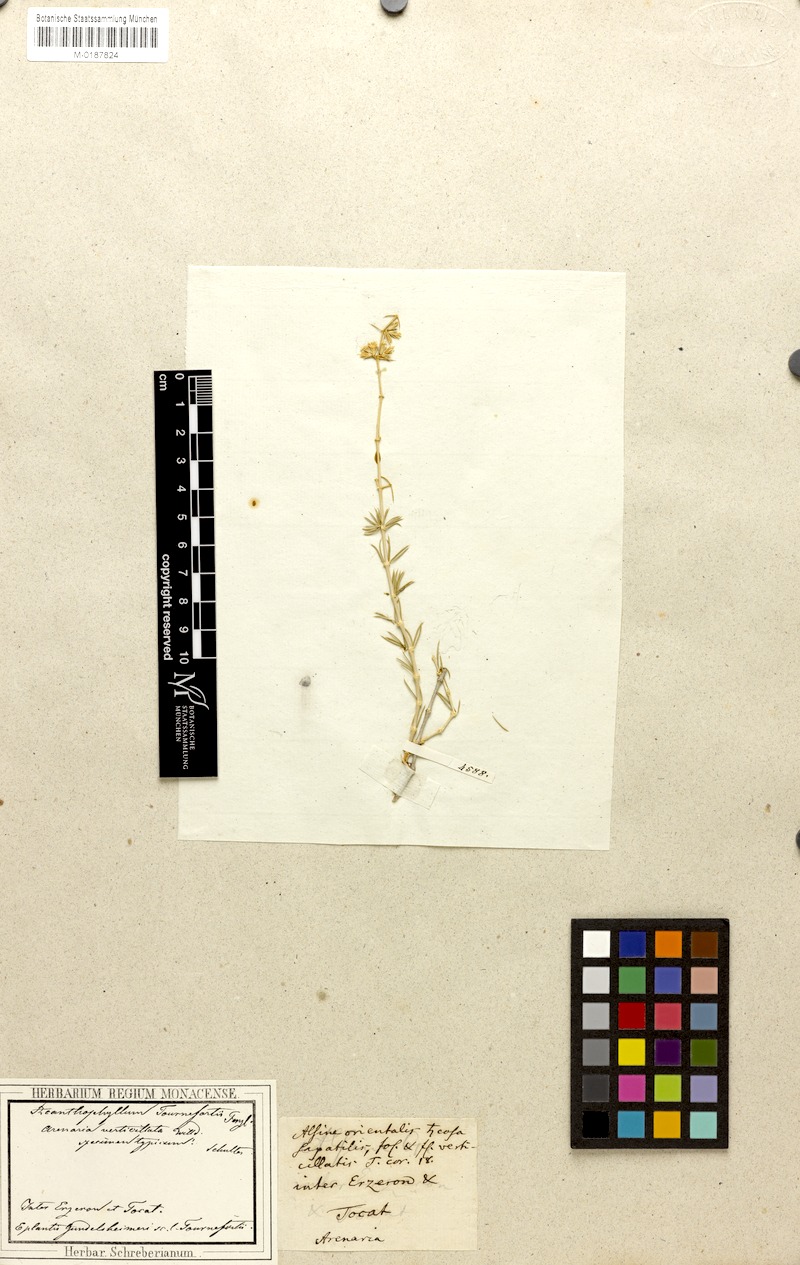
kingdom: Plantae
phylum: Tracheophyta
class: Magnoliopsida
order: Caryophyllales
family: Caryophyllaceae
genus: Acanthophyllum
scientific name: Acanthophyllum verticillatum
